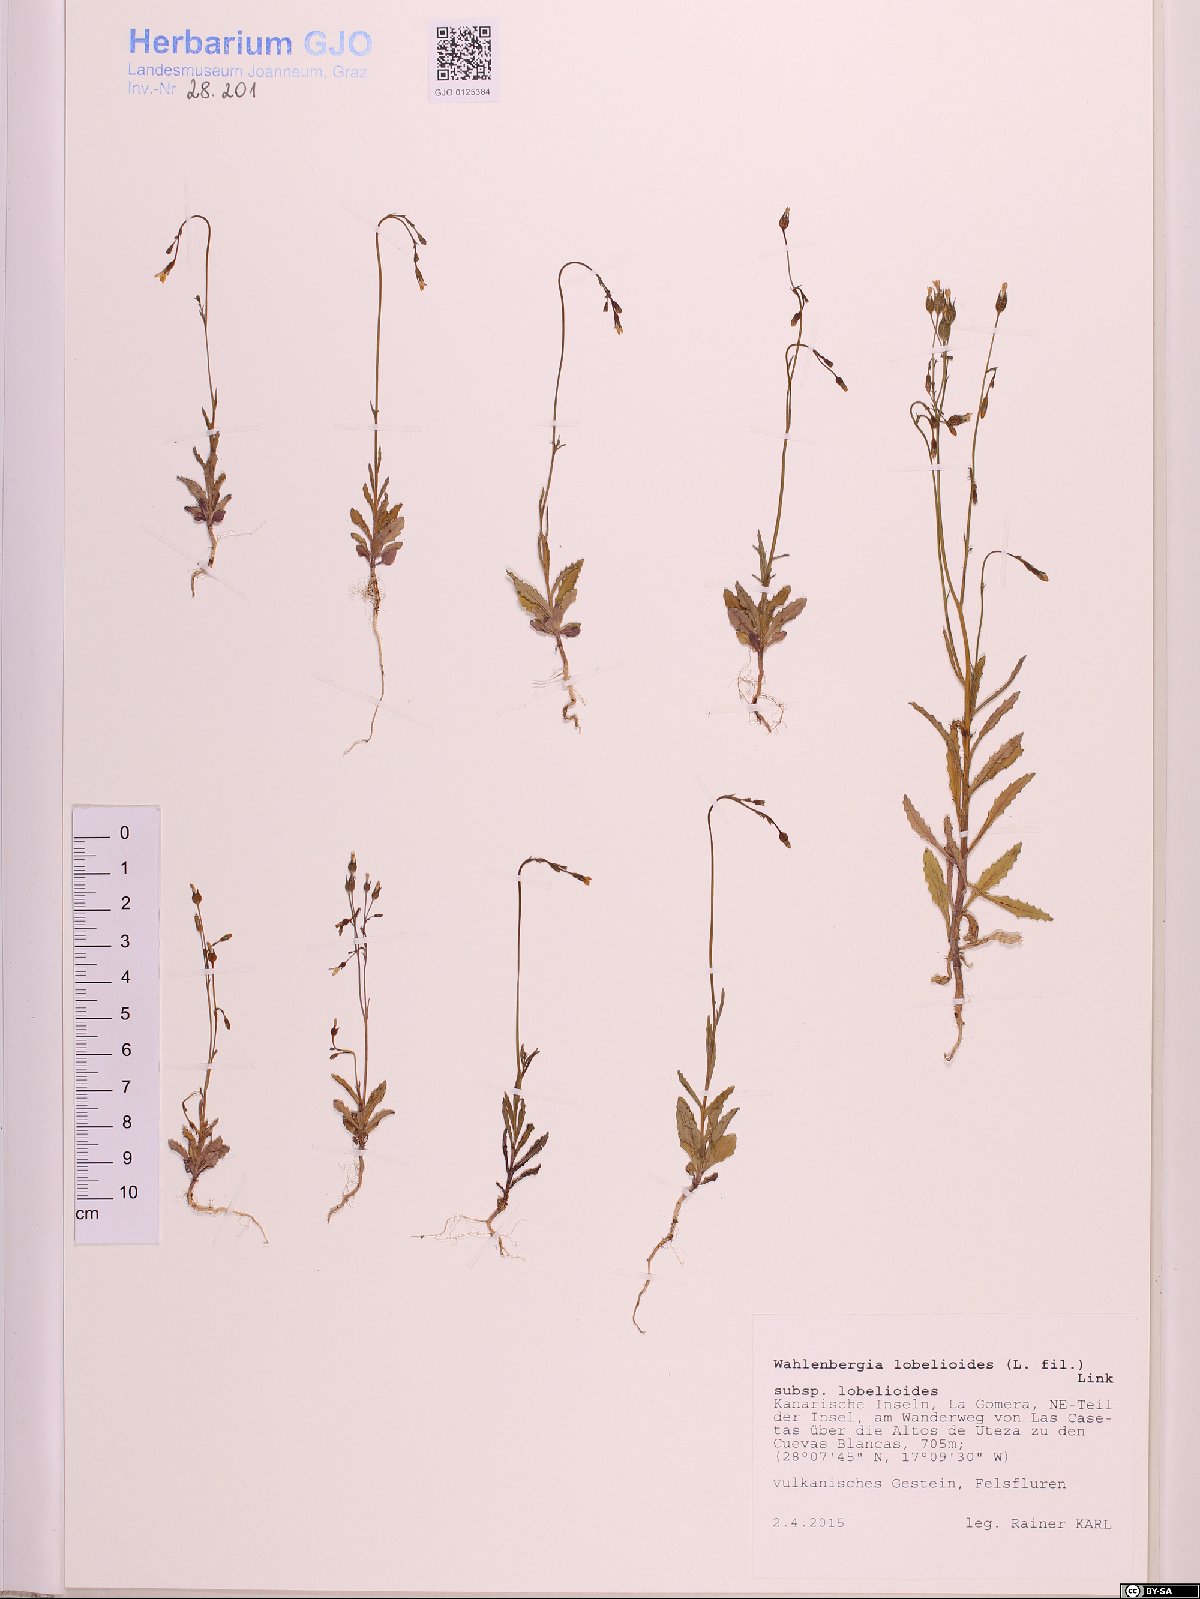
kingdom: Plantae
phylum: Tracheophyta
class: Magnoliopsida
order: Asterales
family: Campanulaceae
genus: Wahlenbergia
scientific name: Wahlenbergia lobelioides
